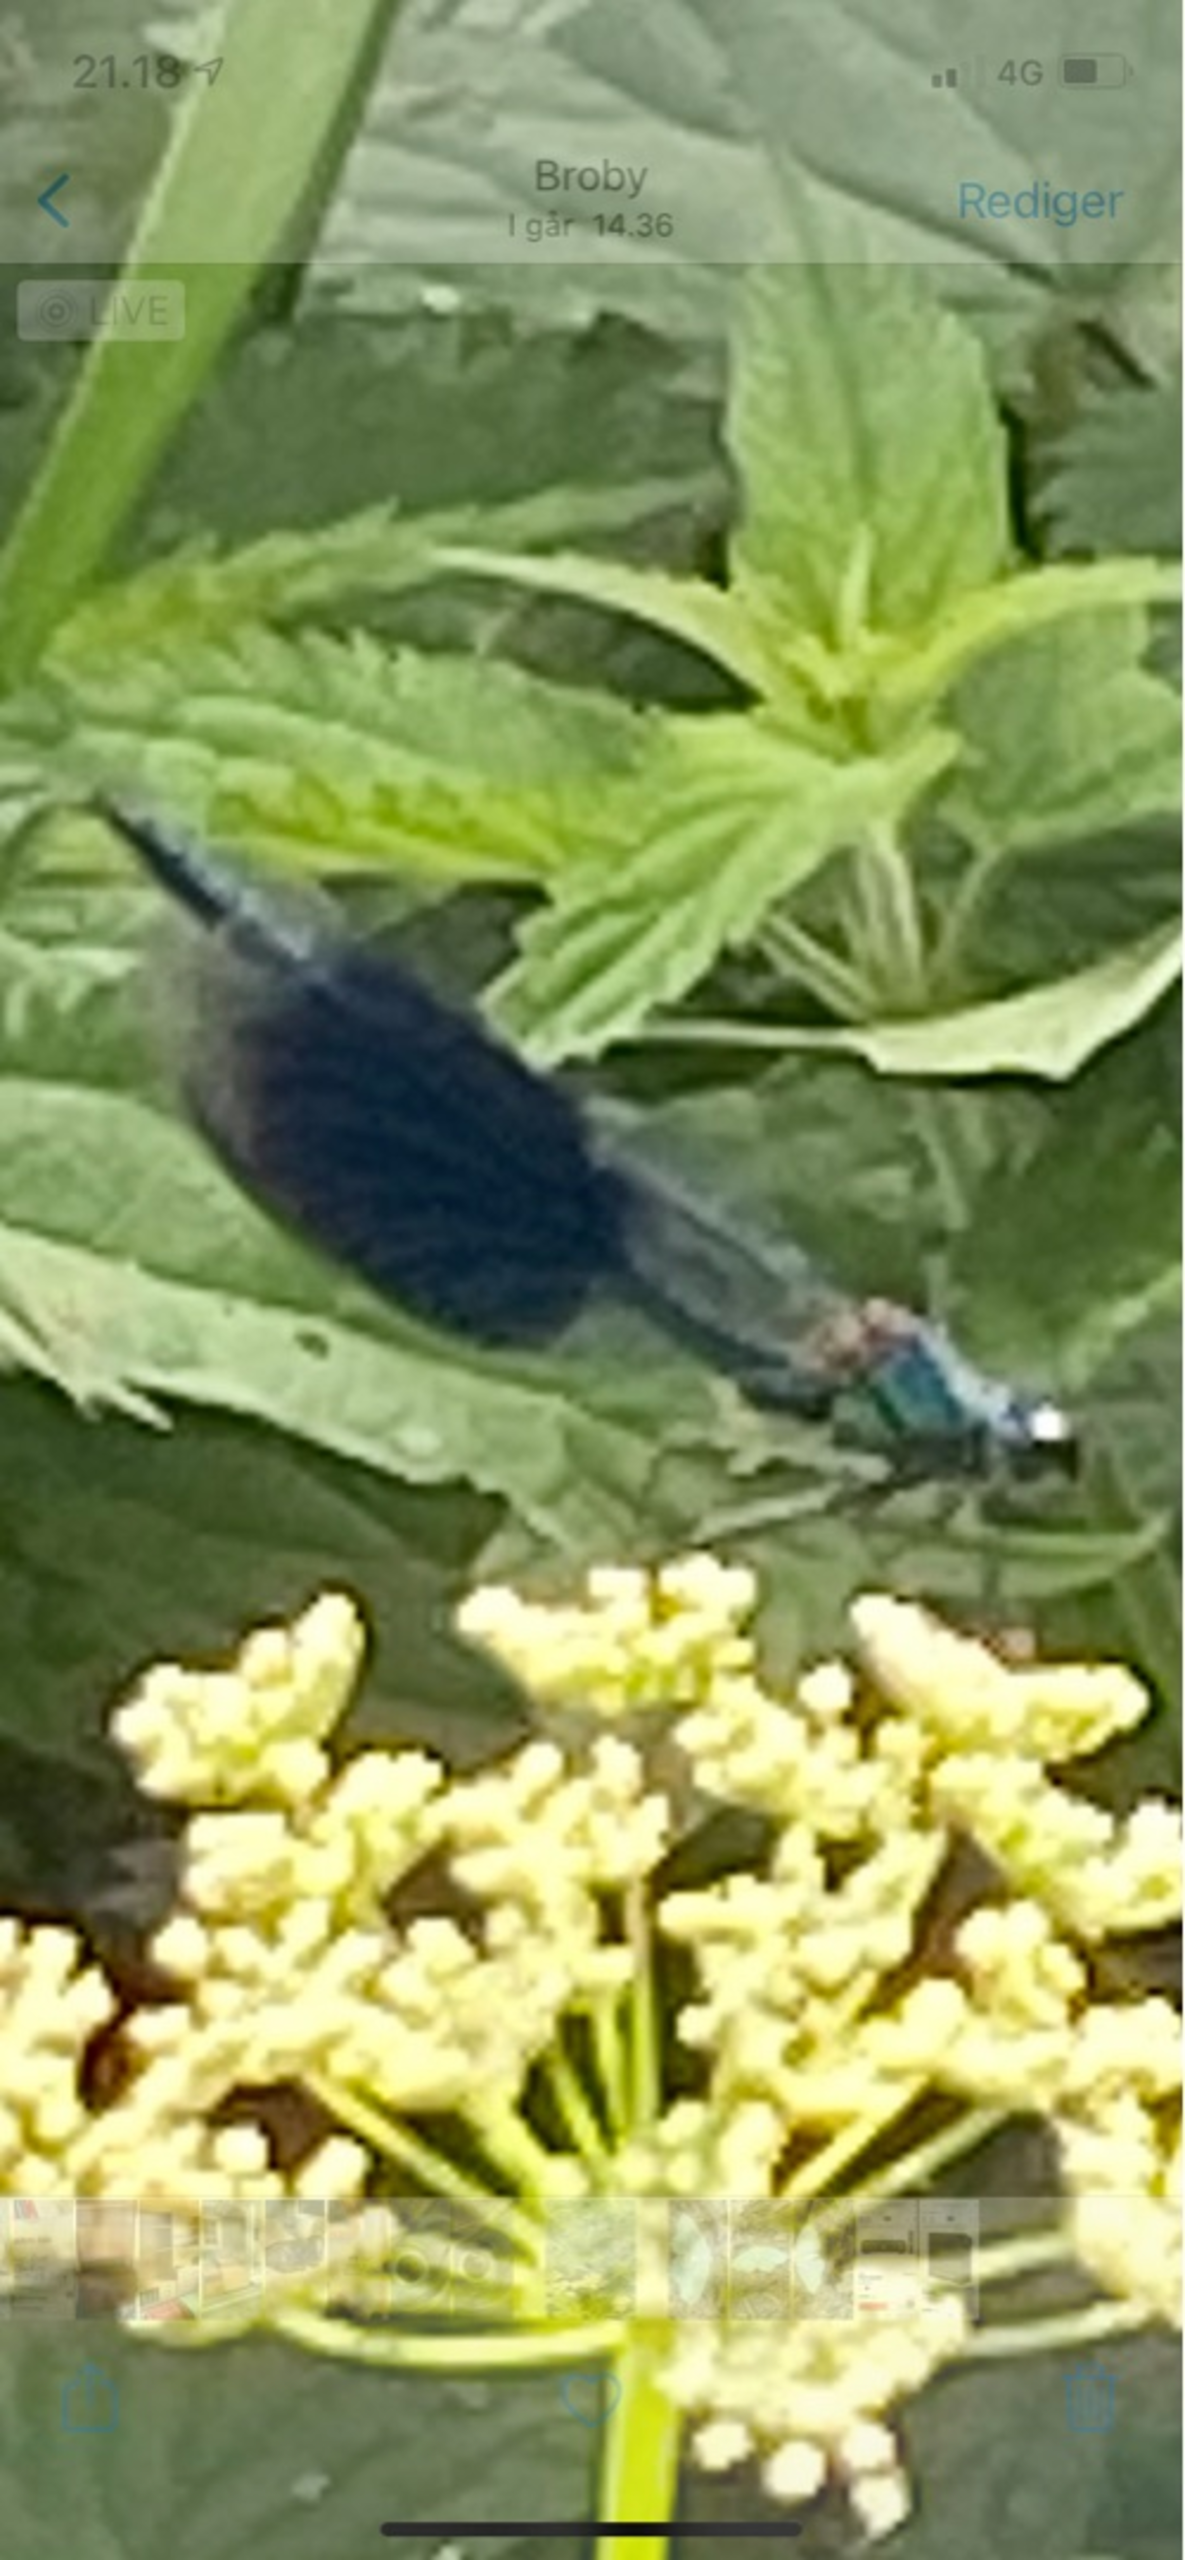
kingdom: Animalia
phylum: Arthropoda
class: Insecta
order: Odonata
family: Calopterygidae
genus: Calopteryx
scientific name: Calopteryx splendens
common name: Blåbåndet pragtvandnymfe
